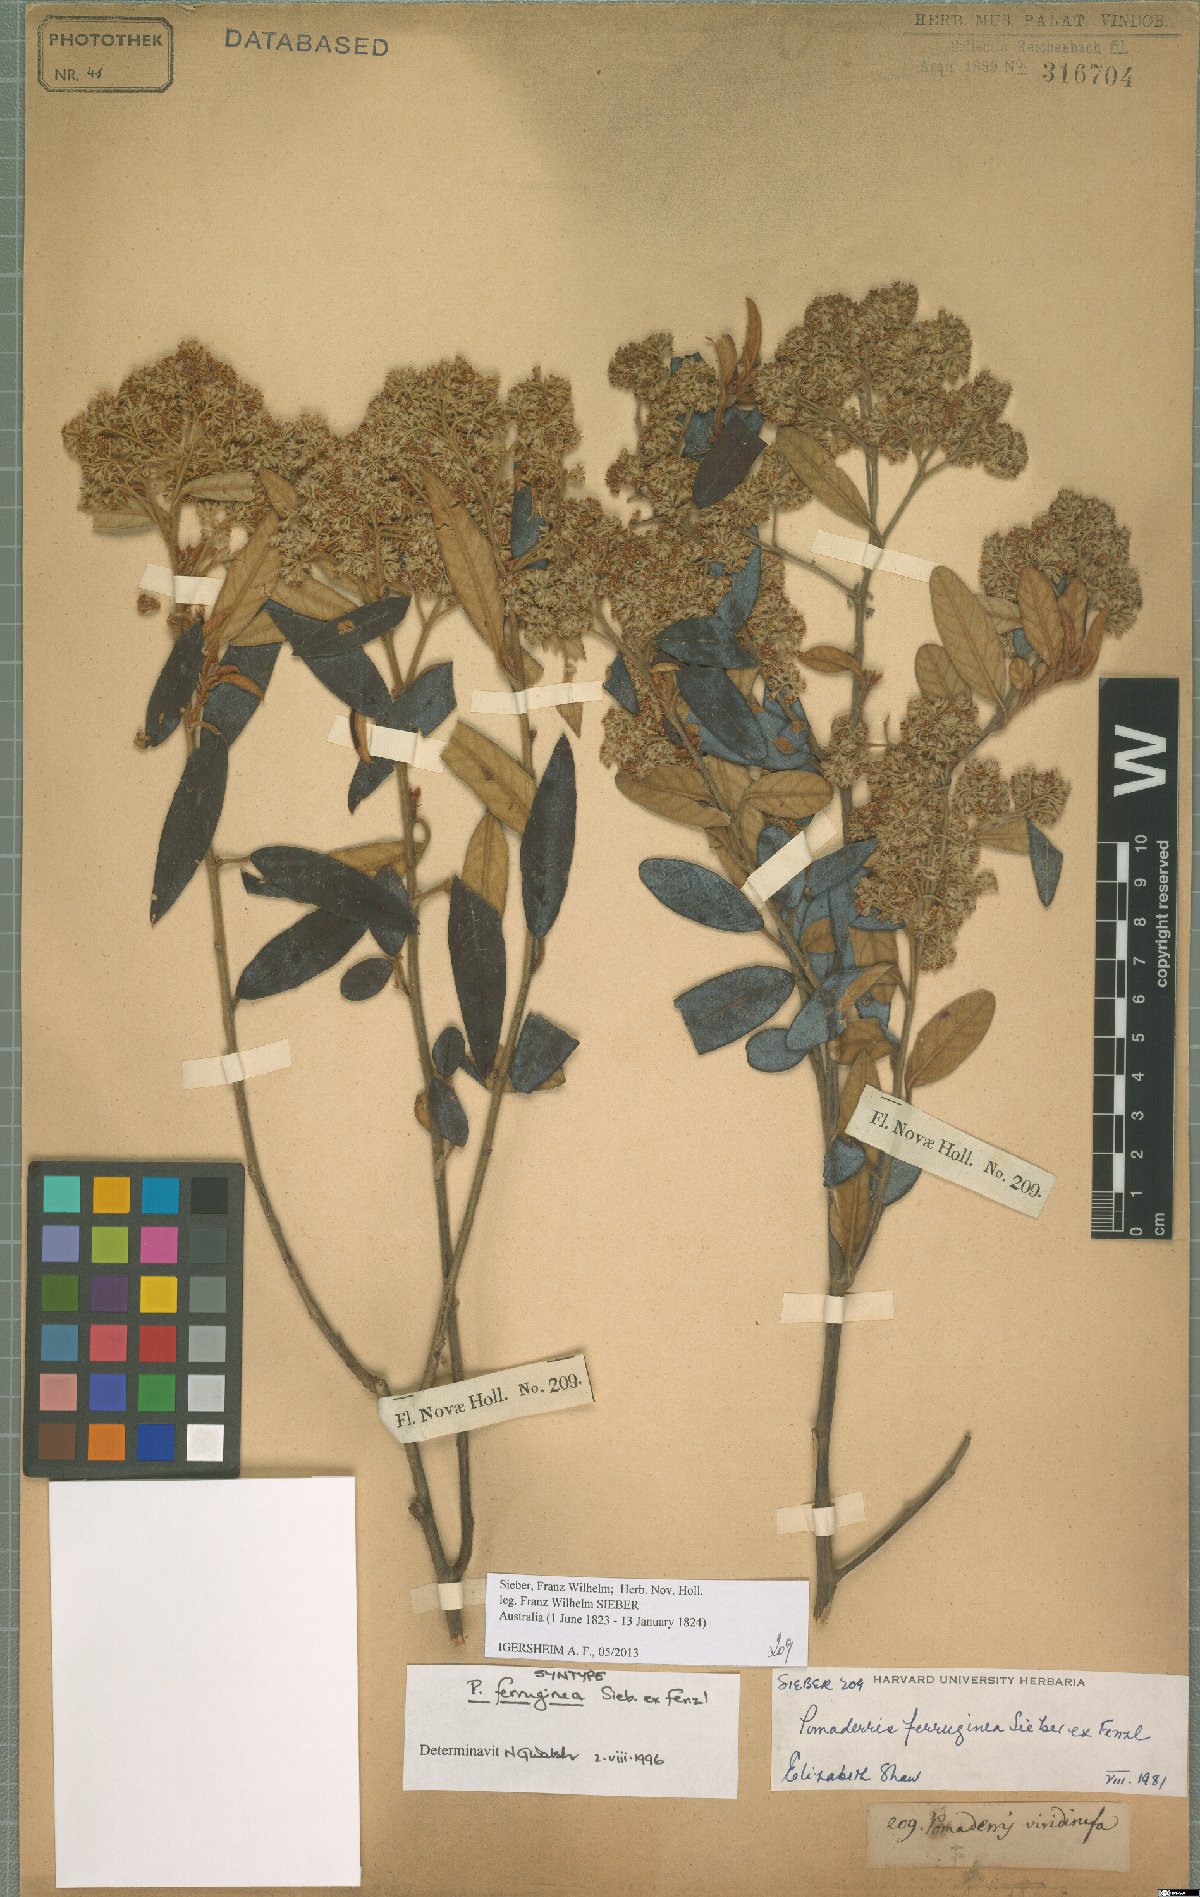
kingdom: Plantae
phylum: Tracheophyta
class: Magnoliopsida
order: Rosales
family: Rhamnaceae
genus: Pomaderris
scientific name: Pomaderris wendlandiana
